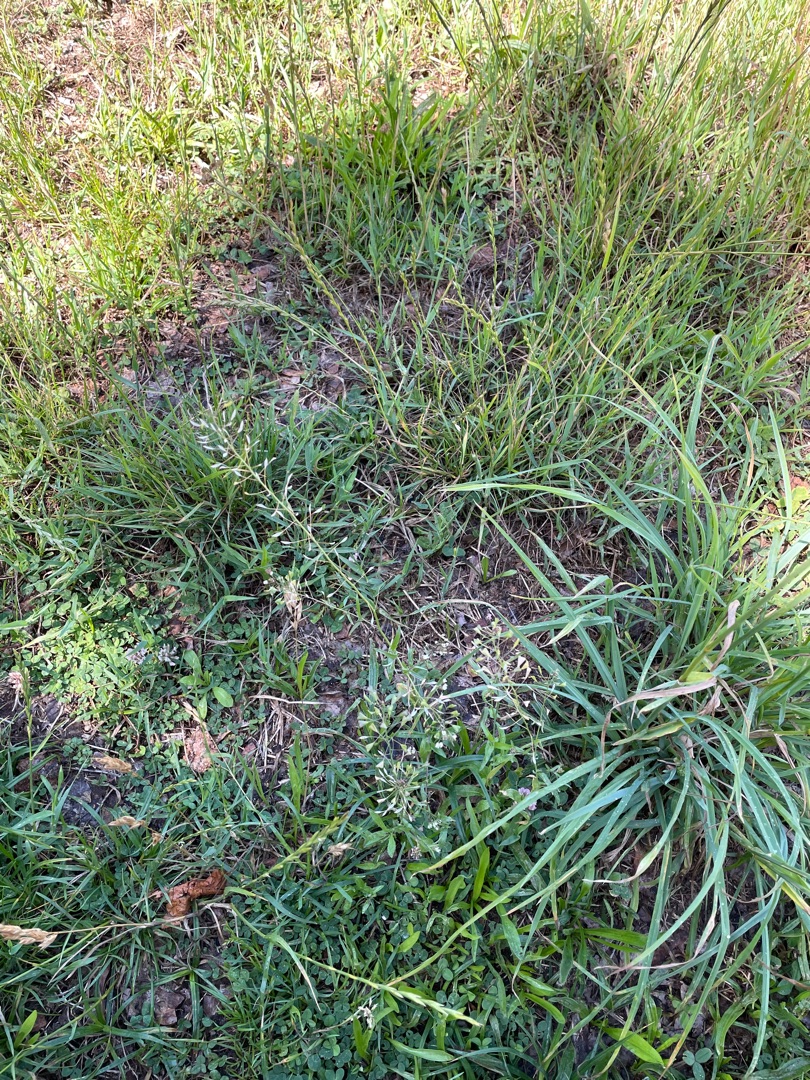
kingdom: Plantae
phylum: Tracheophyta
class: Magnoliopsida
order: Brassicales
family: Brassicaceae
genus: Capsella
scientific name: Capsella bursa-pastoris
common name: Hyrdetaske
